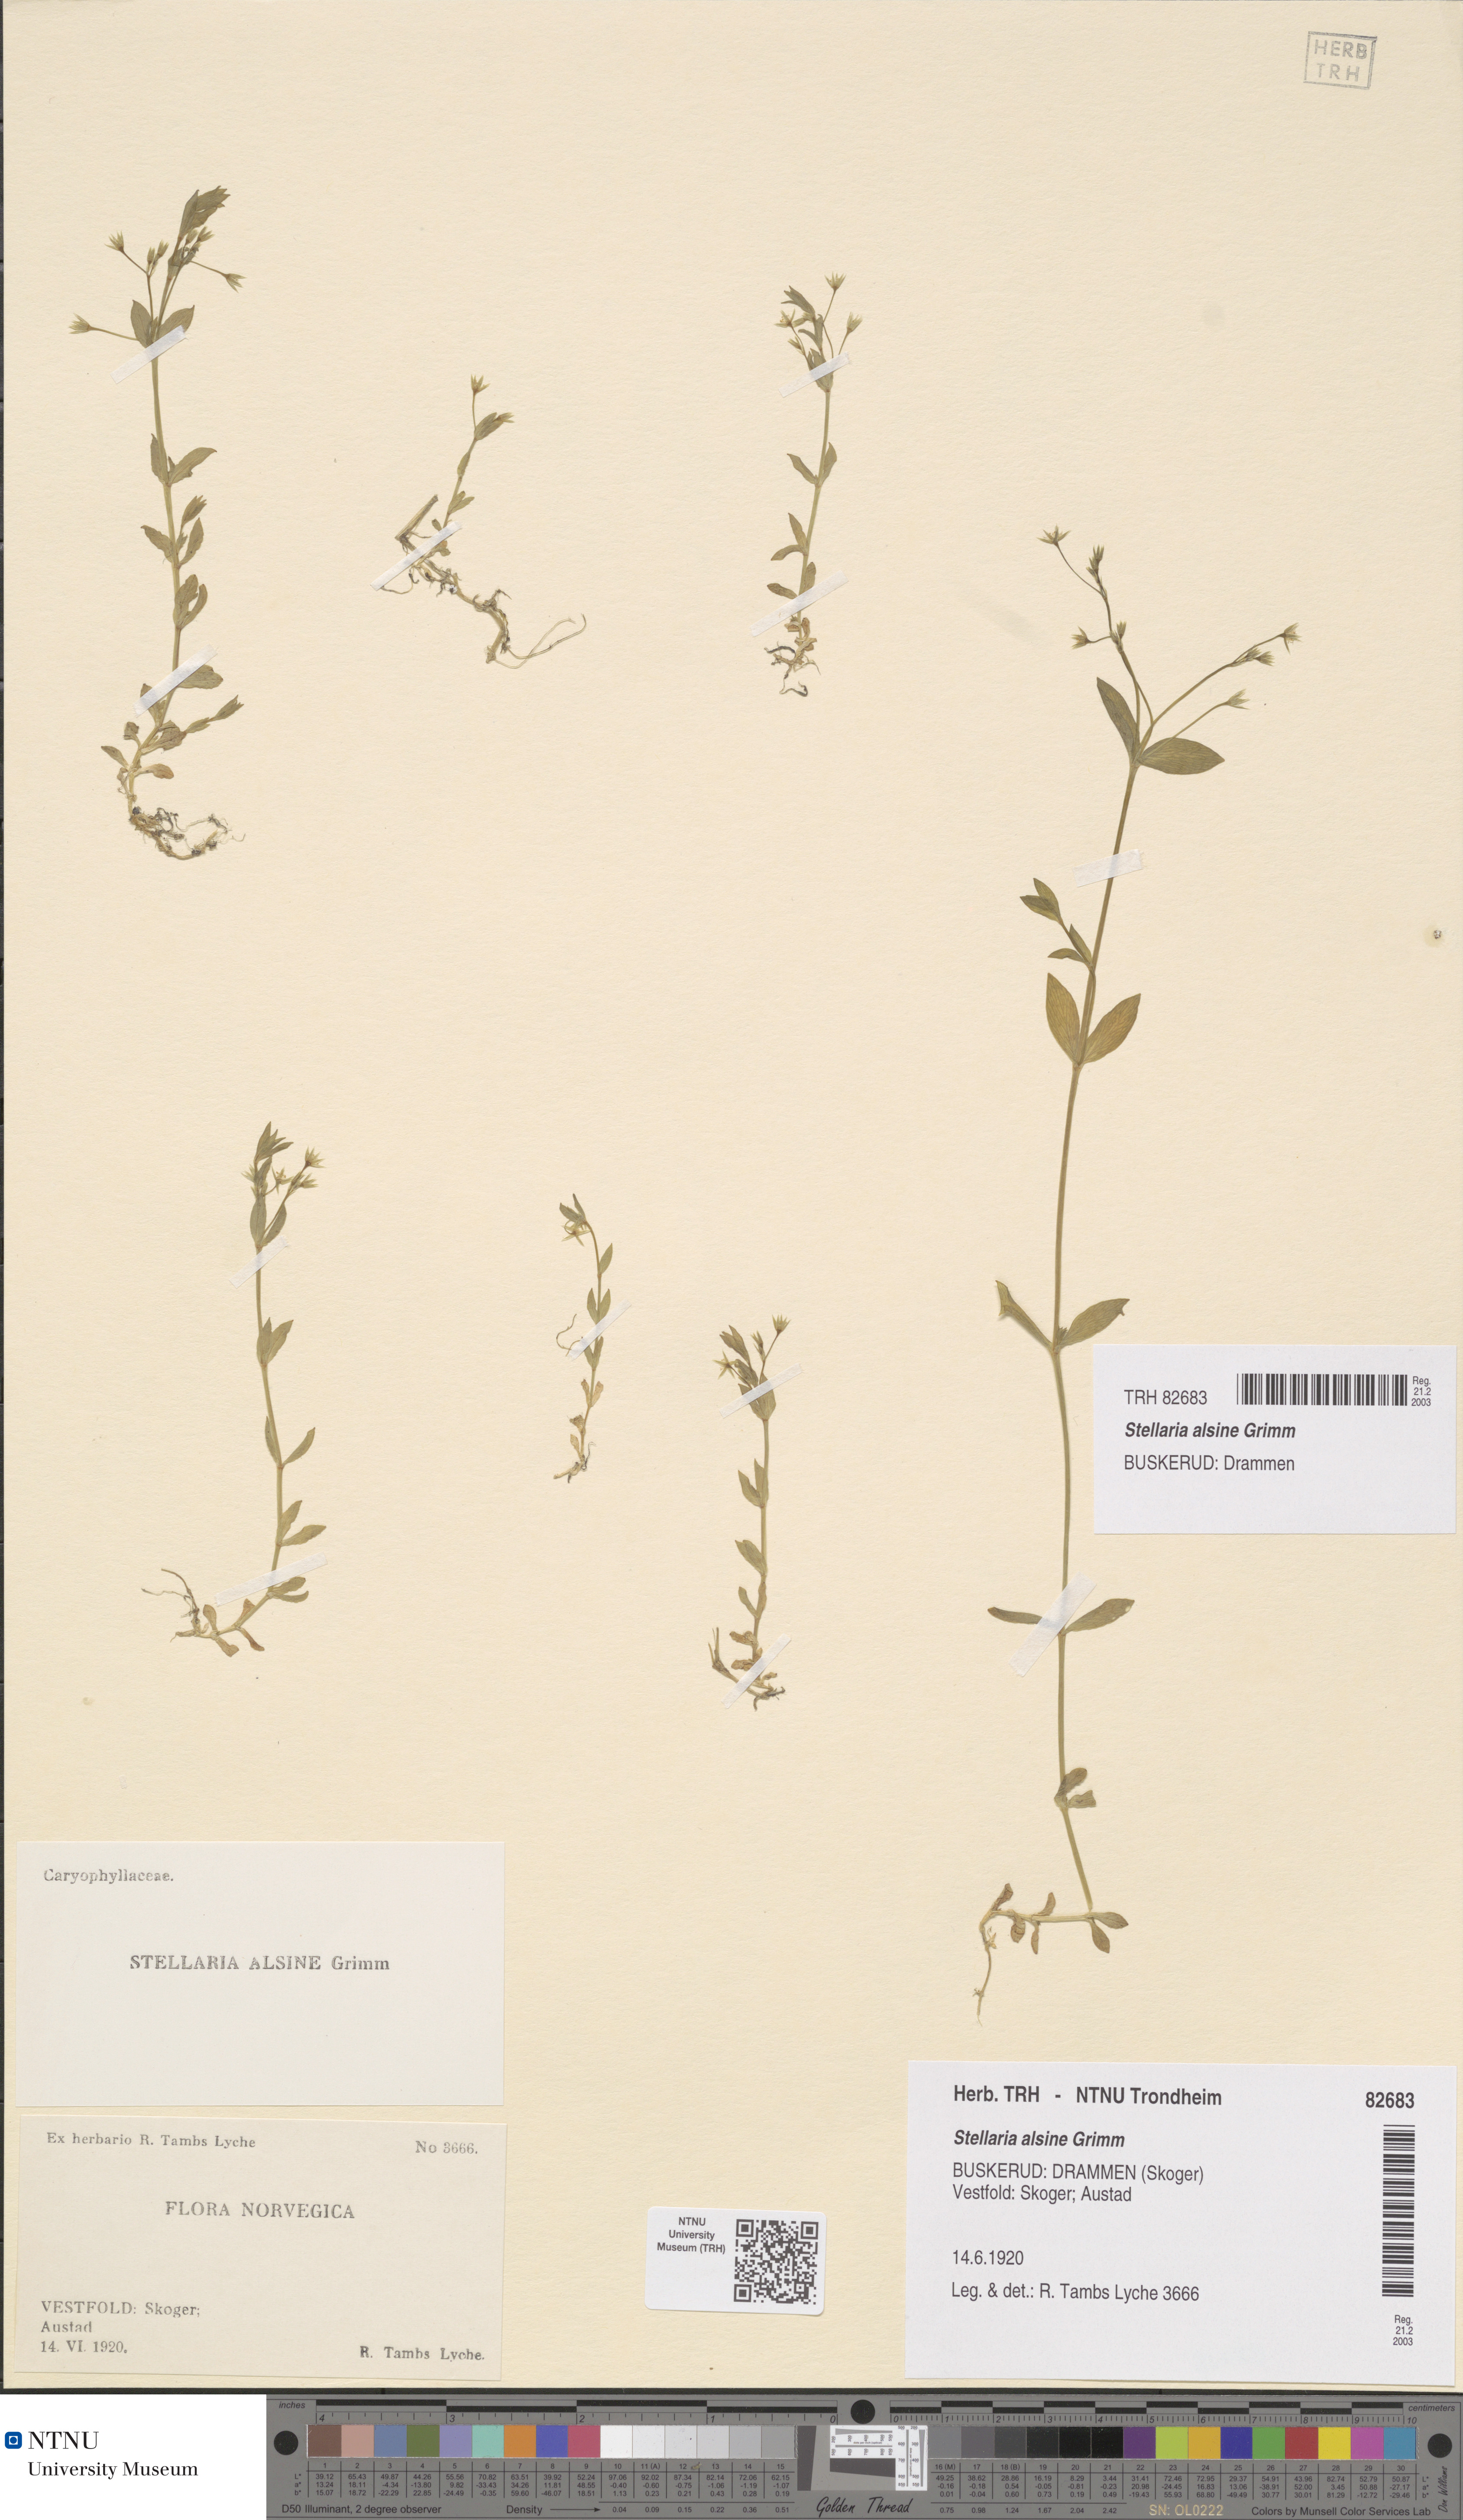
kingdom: Plantae
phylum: Tracheophyta
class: Magnoliopsida
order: Caryophyllales
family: Caryophyllaceae
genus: Stellaria
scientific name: Stellaria alsine
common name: Bog stitchwort
